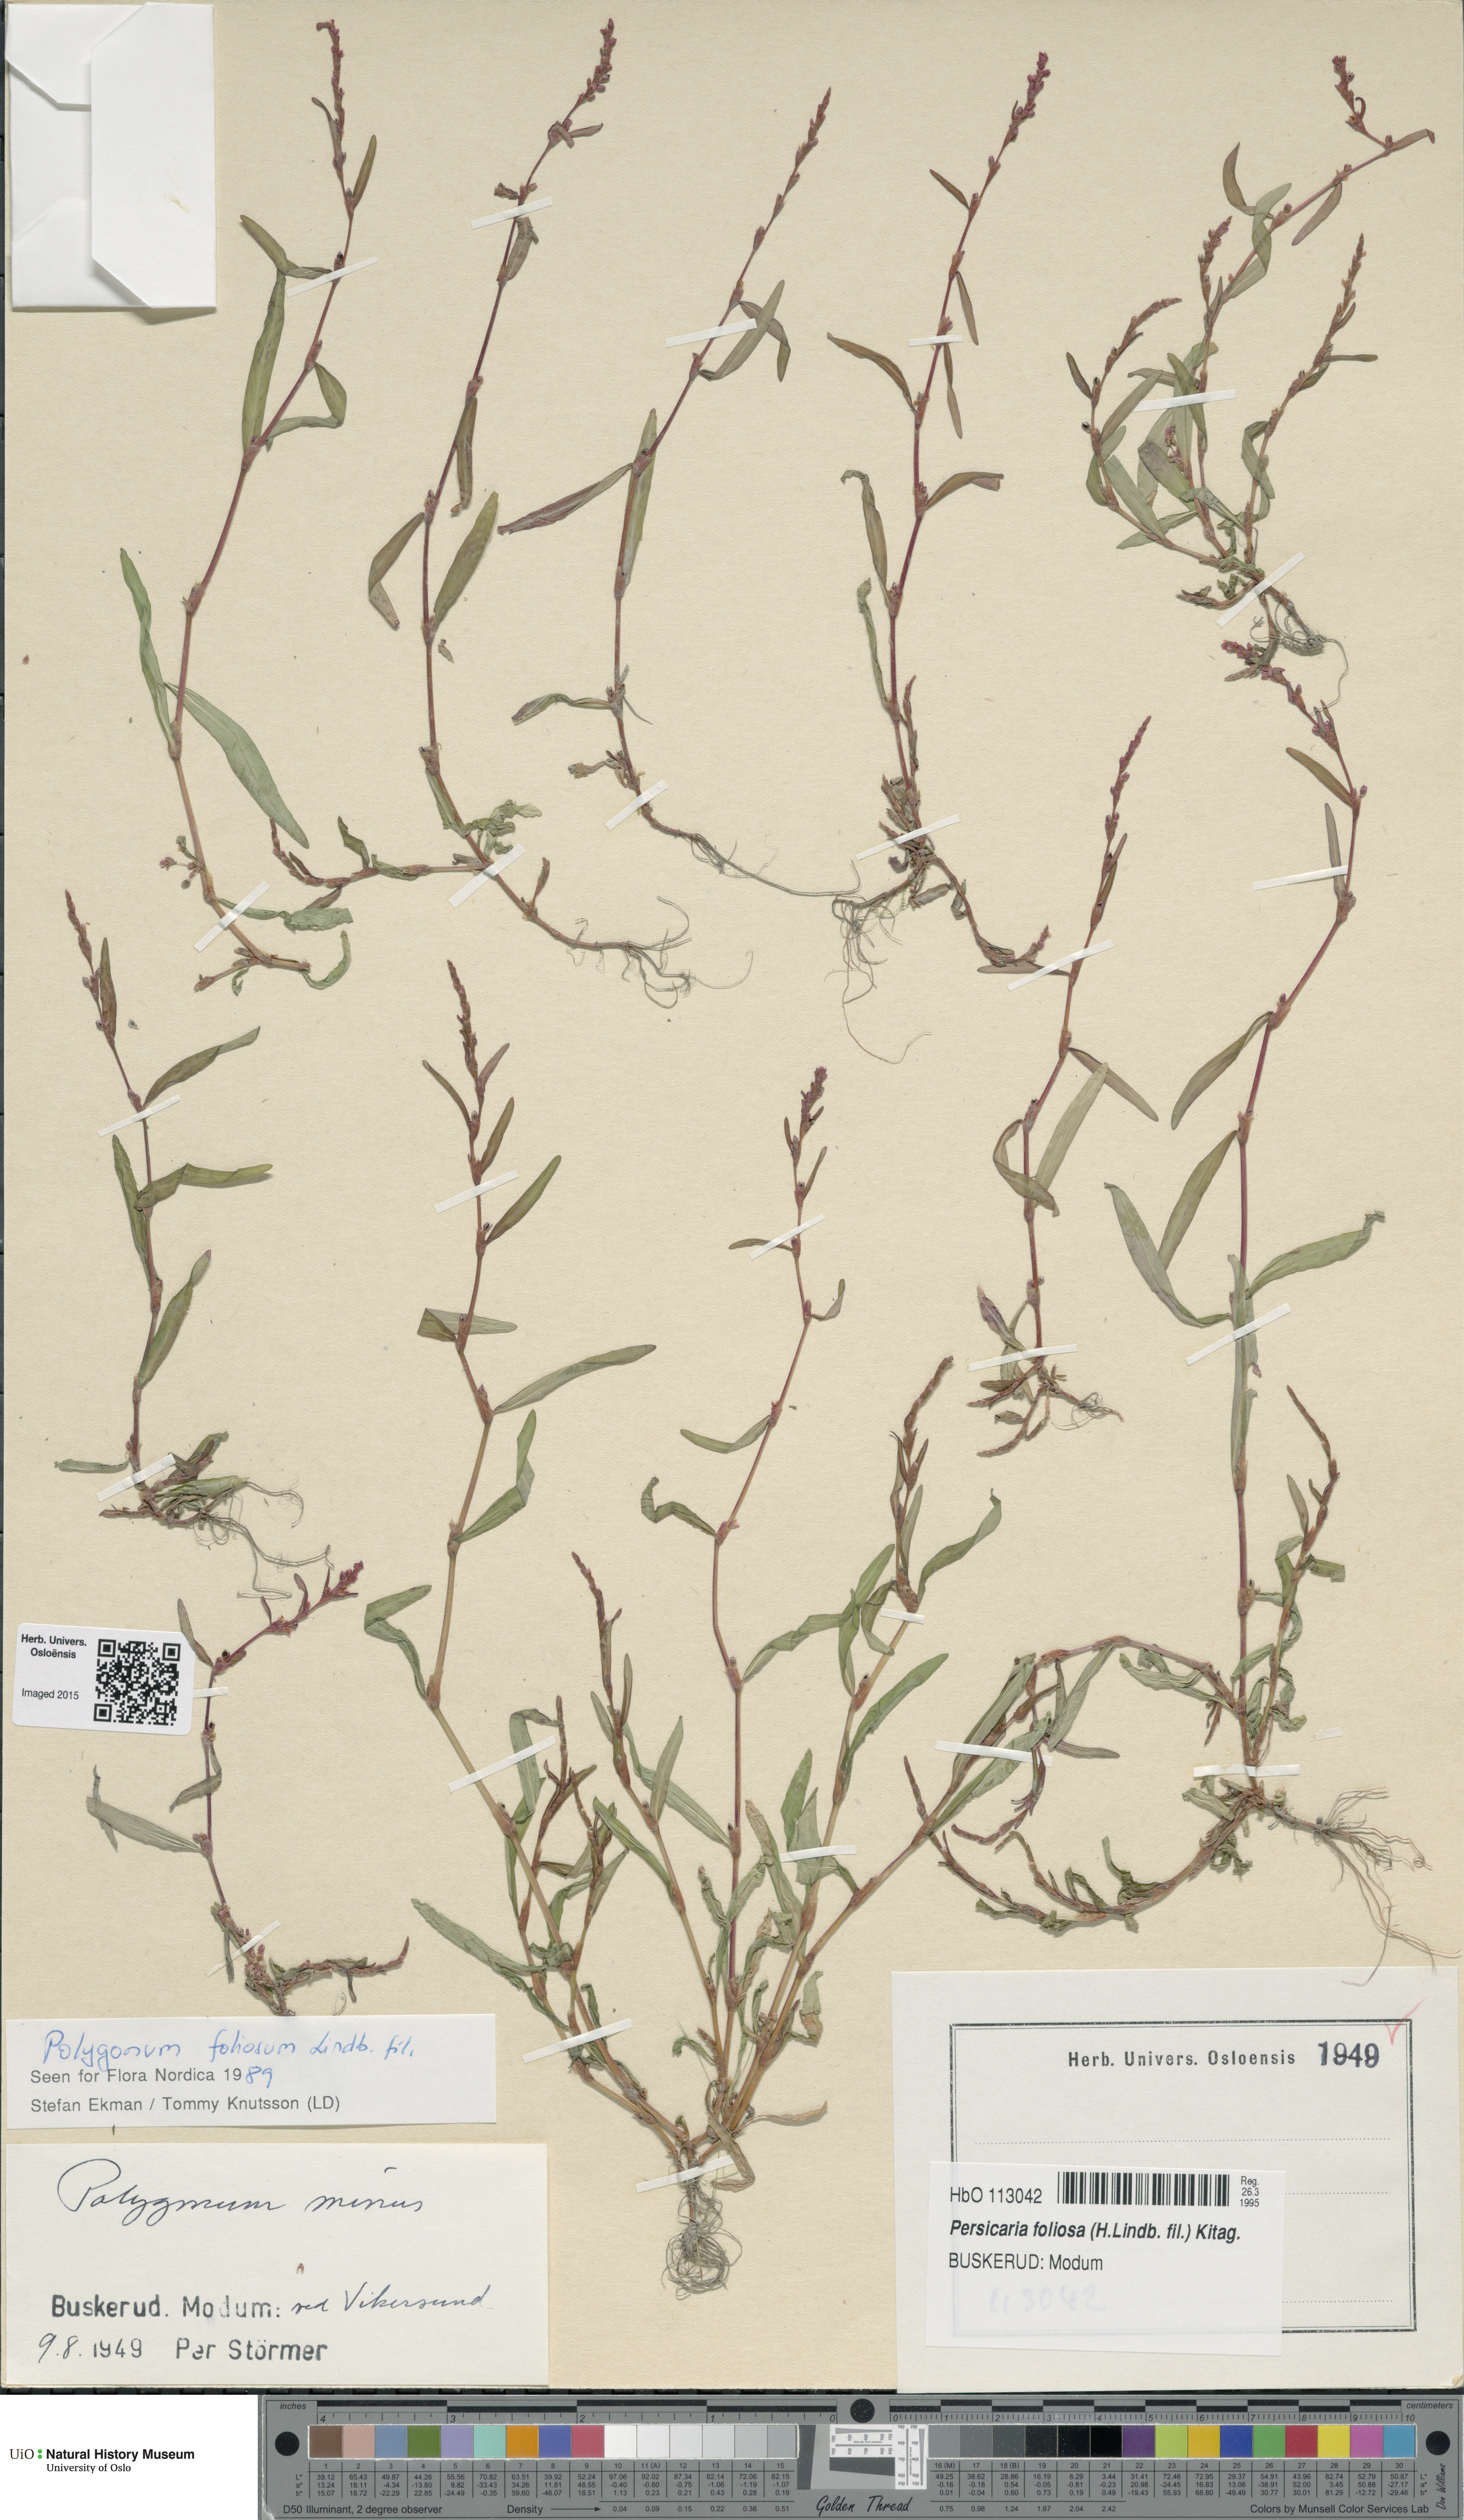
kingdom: Plantae
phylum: Tracheophyta
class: Magnoliopsida
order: Caryophyllales
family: Polygonaceae
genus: Persicaria
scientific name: Persicaria foliosa
